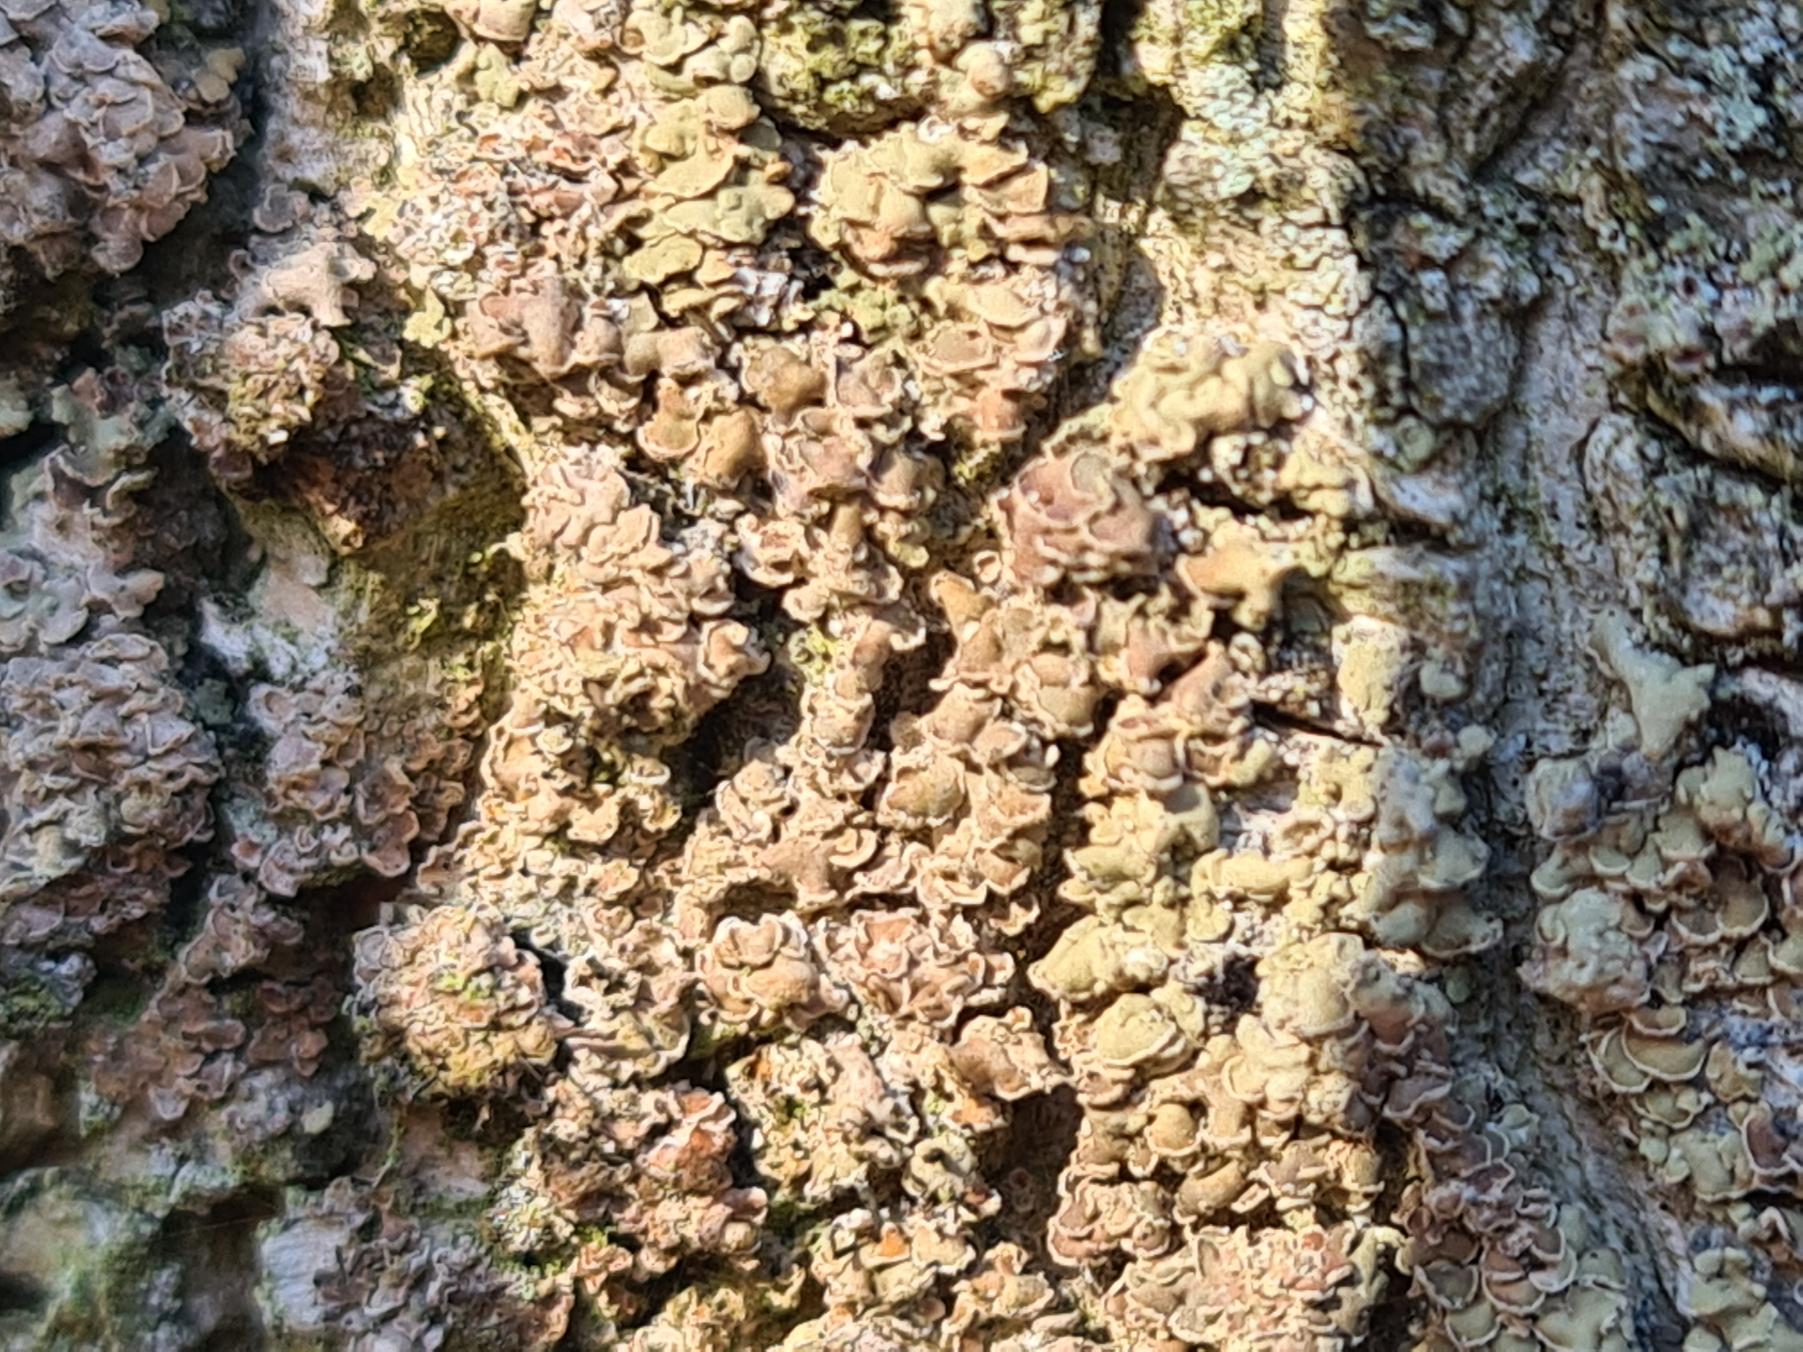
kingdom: Fungi
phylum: Ascomycota
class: Lecanoromycetes
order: Umbilicariales
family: Ophioparmaceae
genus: Hypocenomyce
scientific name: Hypocenomyce scalaris
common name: Småskællet muslinglav
